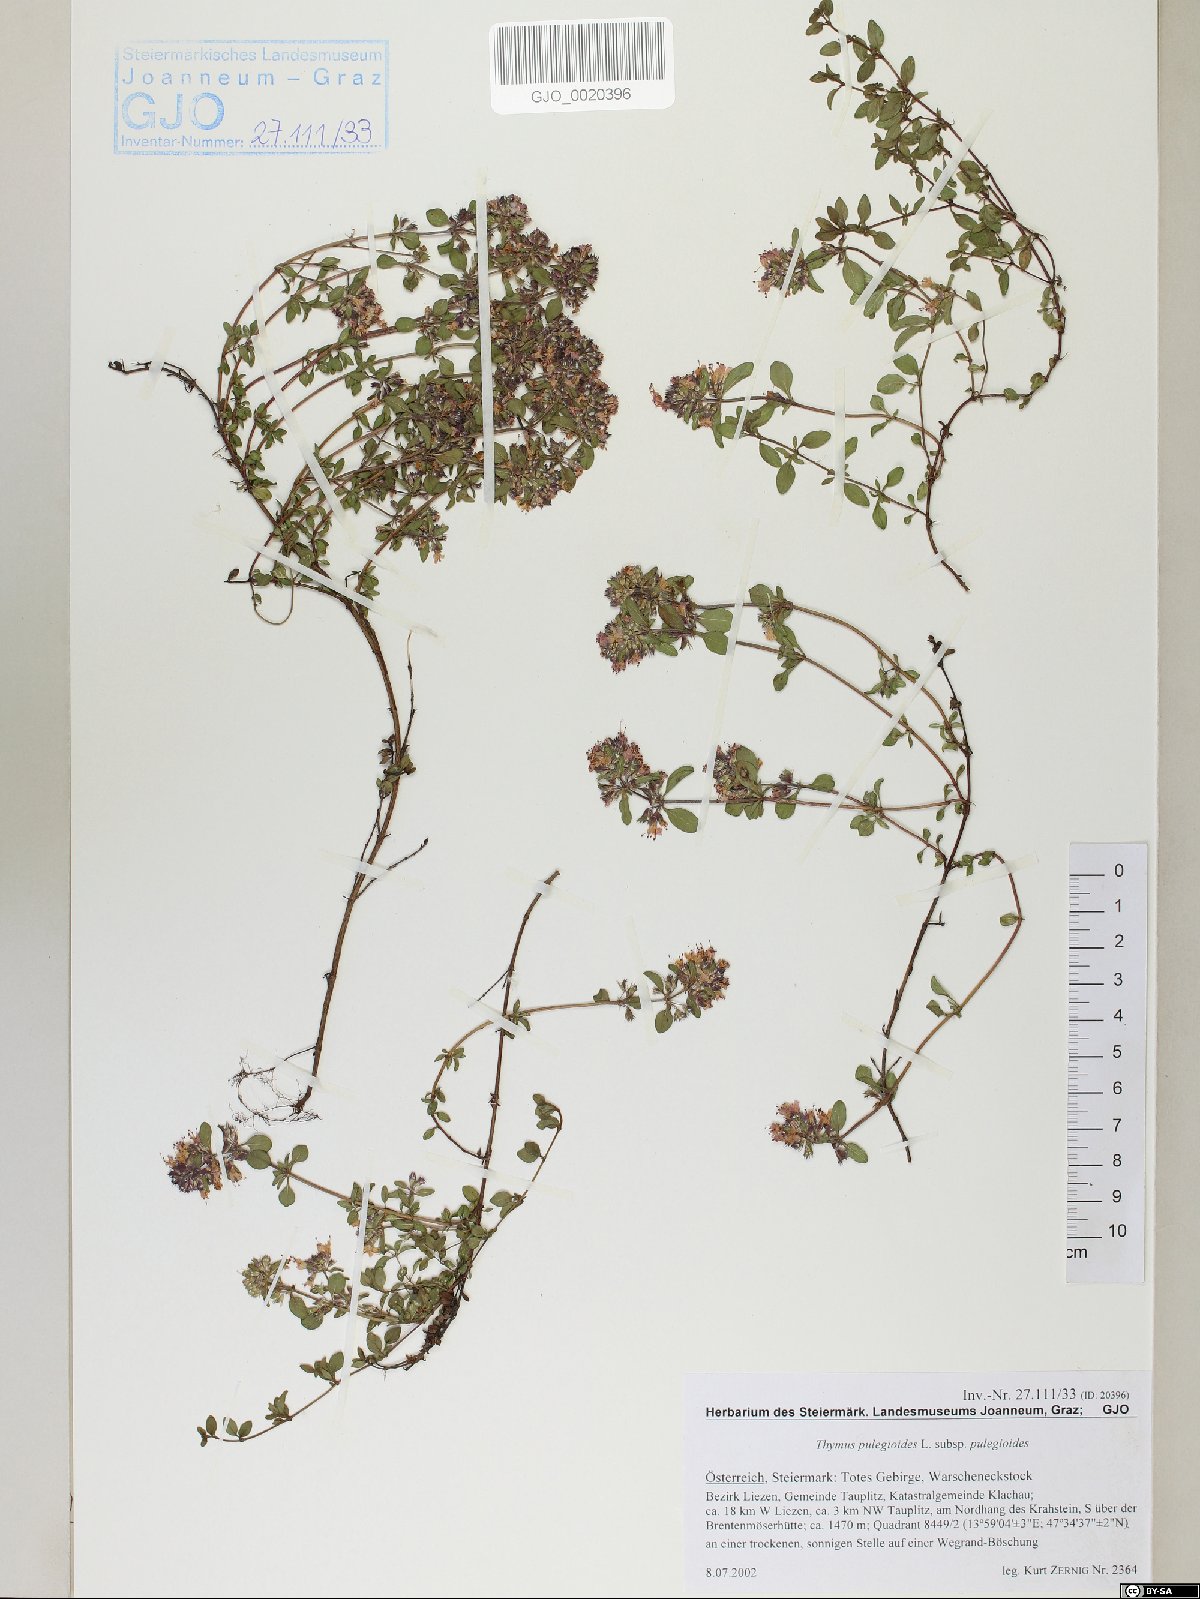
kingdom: Plantae
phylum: Tracheophyta
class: Magnoliopsida
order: Lamiales
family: Lamiaceae
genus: Thymus
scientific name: Thymus pulegioides
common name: Large thyme
